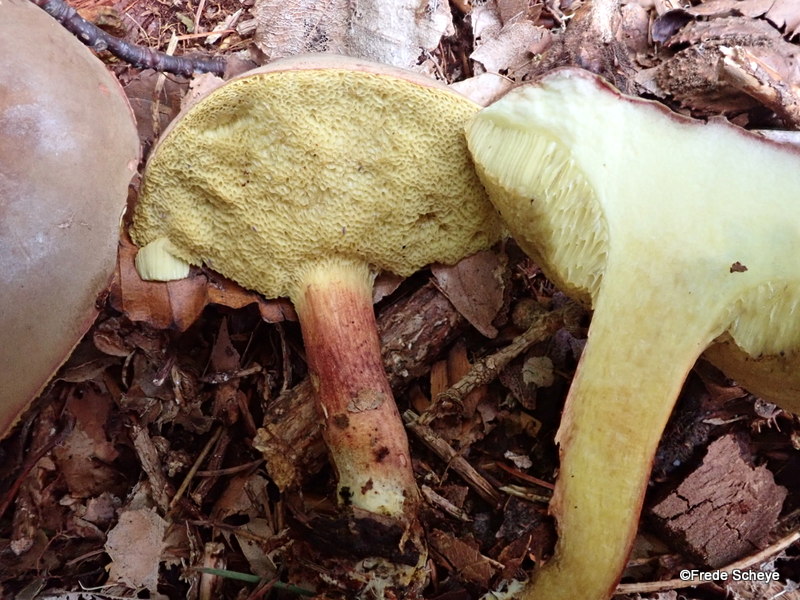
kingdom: Fungi
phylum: Basidiomycota
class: Agaricomycetes
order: Boletales
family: Boletaceae
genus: Xerocomellus
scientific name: Xerocomellus pruinatus
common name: dugget rørhat
